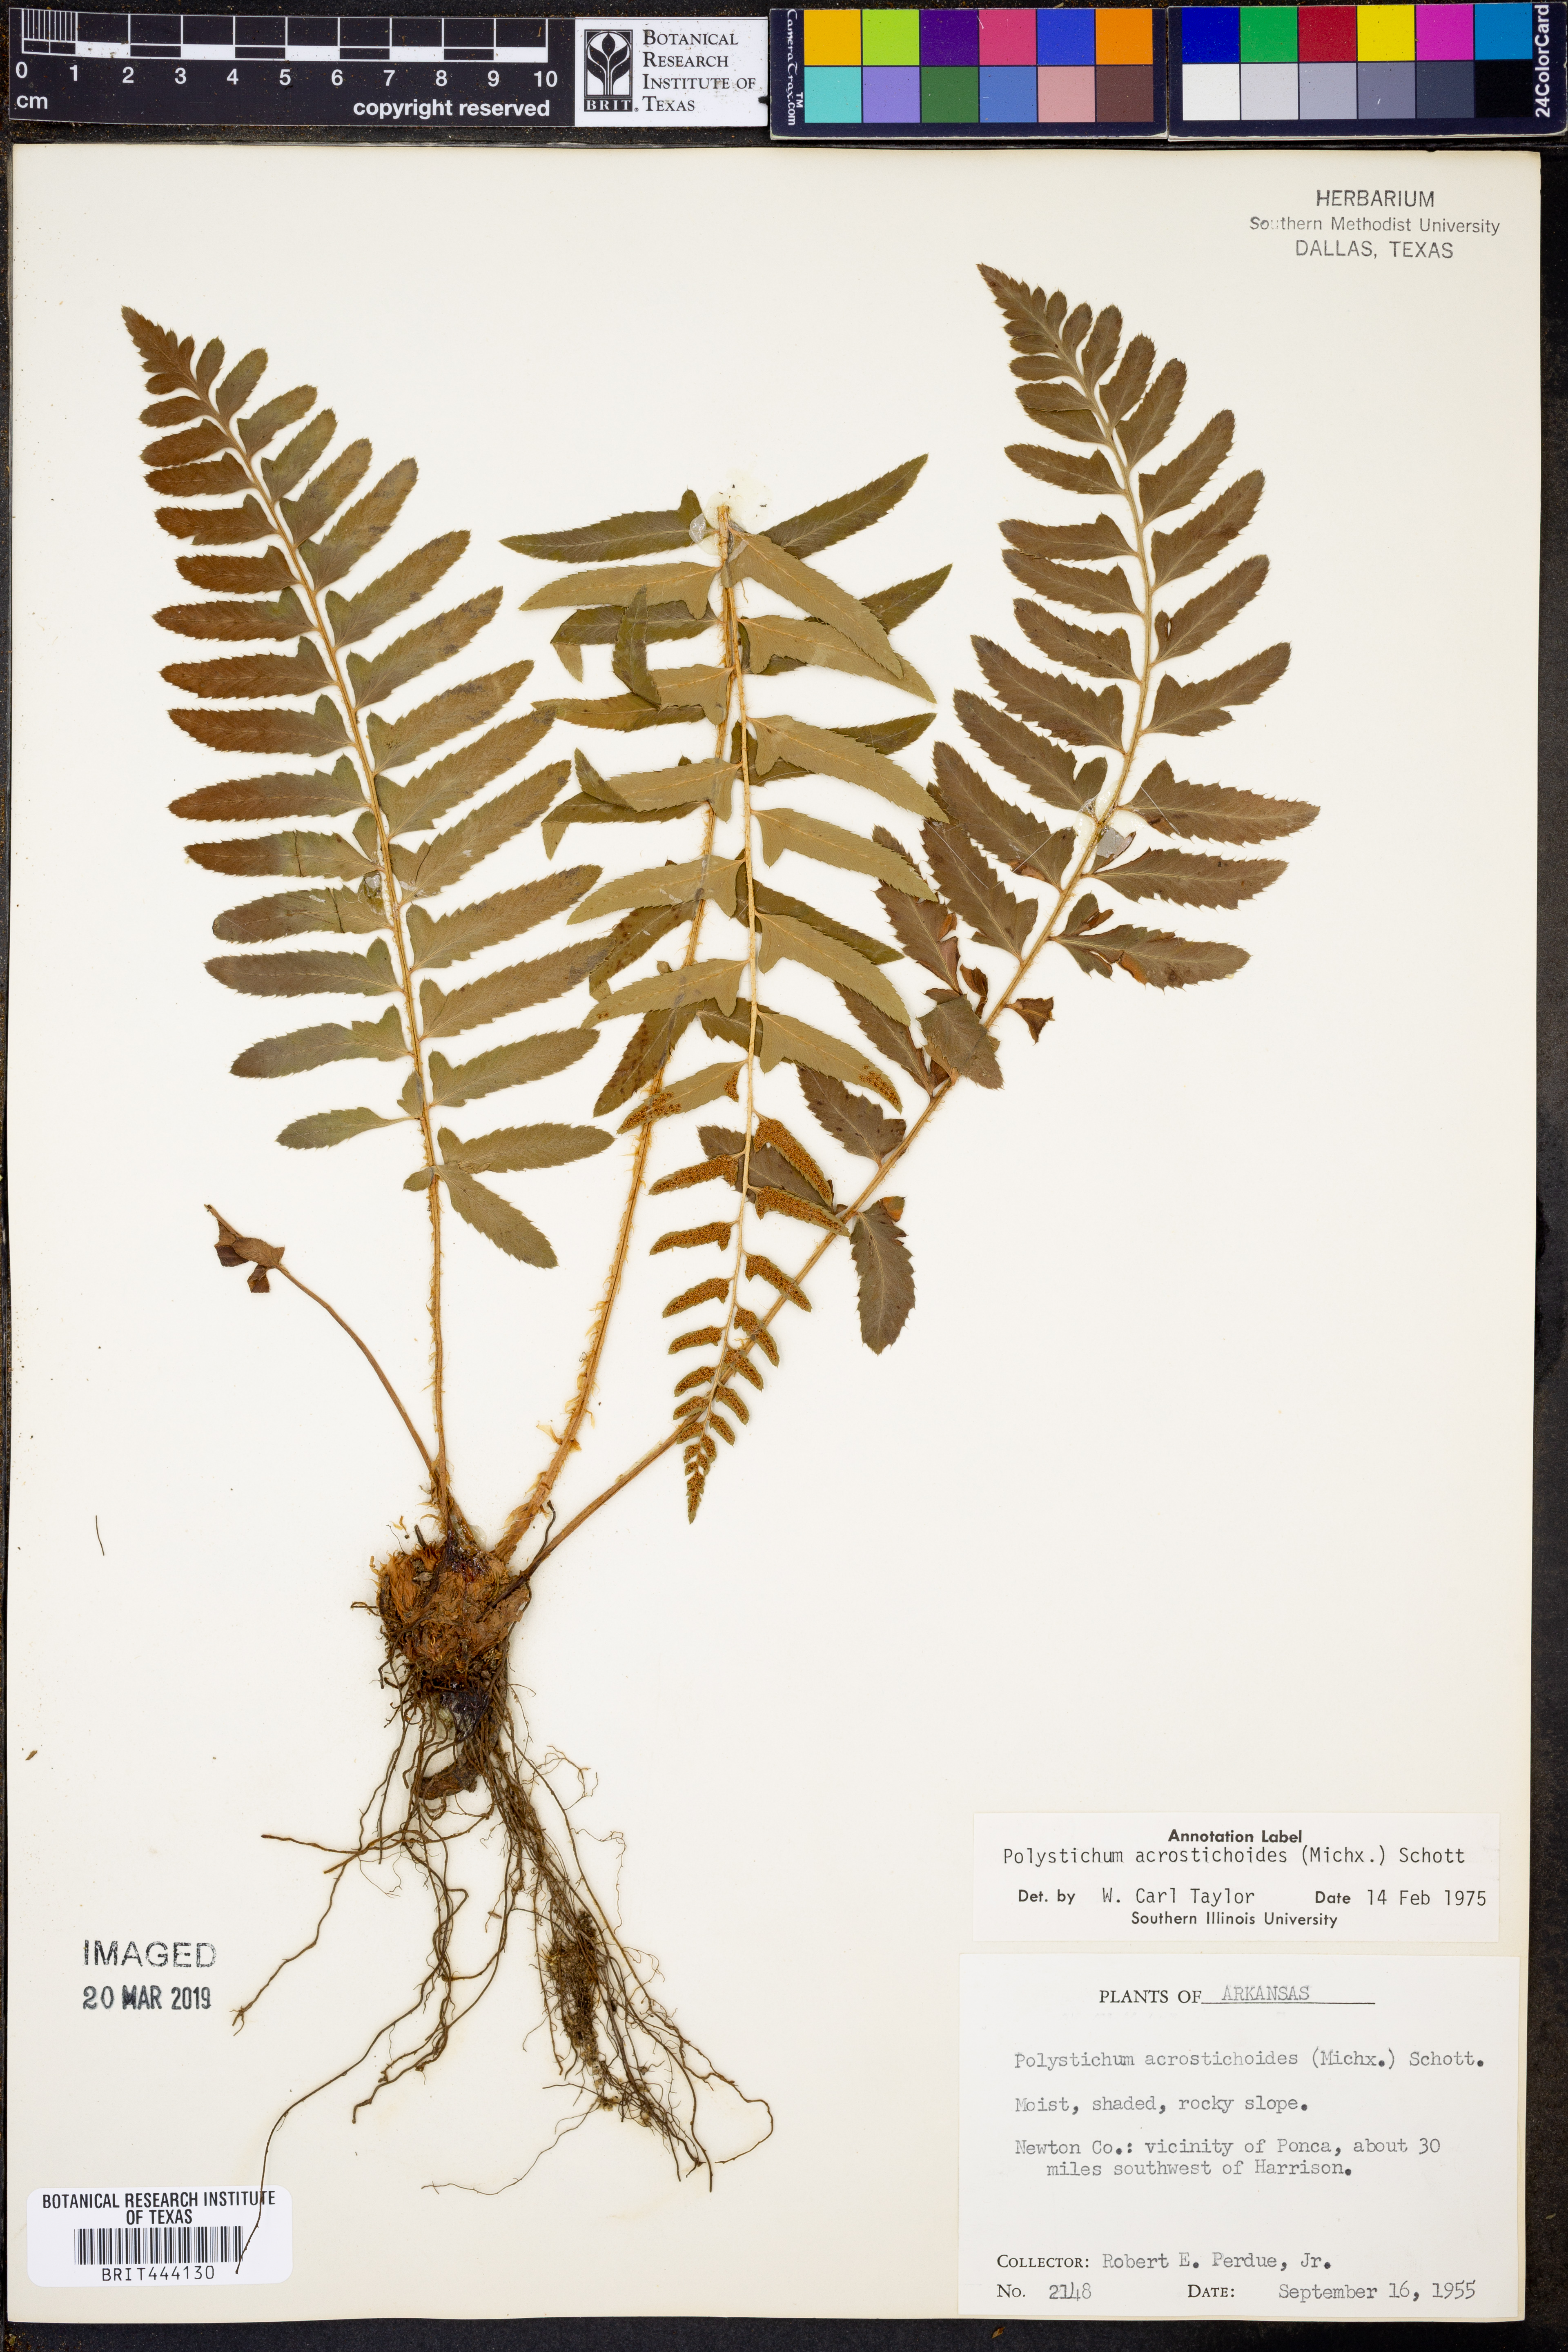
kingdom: Plantae
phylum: Tracheophyta
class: Polypodiopsida
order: Polypodiales
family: Dryopteridaceae
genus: Polystichum
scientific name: Polystichum acrostichoides
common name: Christmas fern
